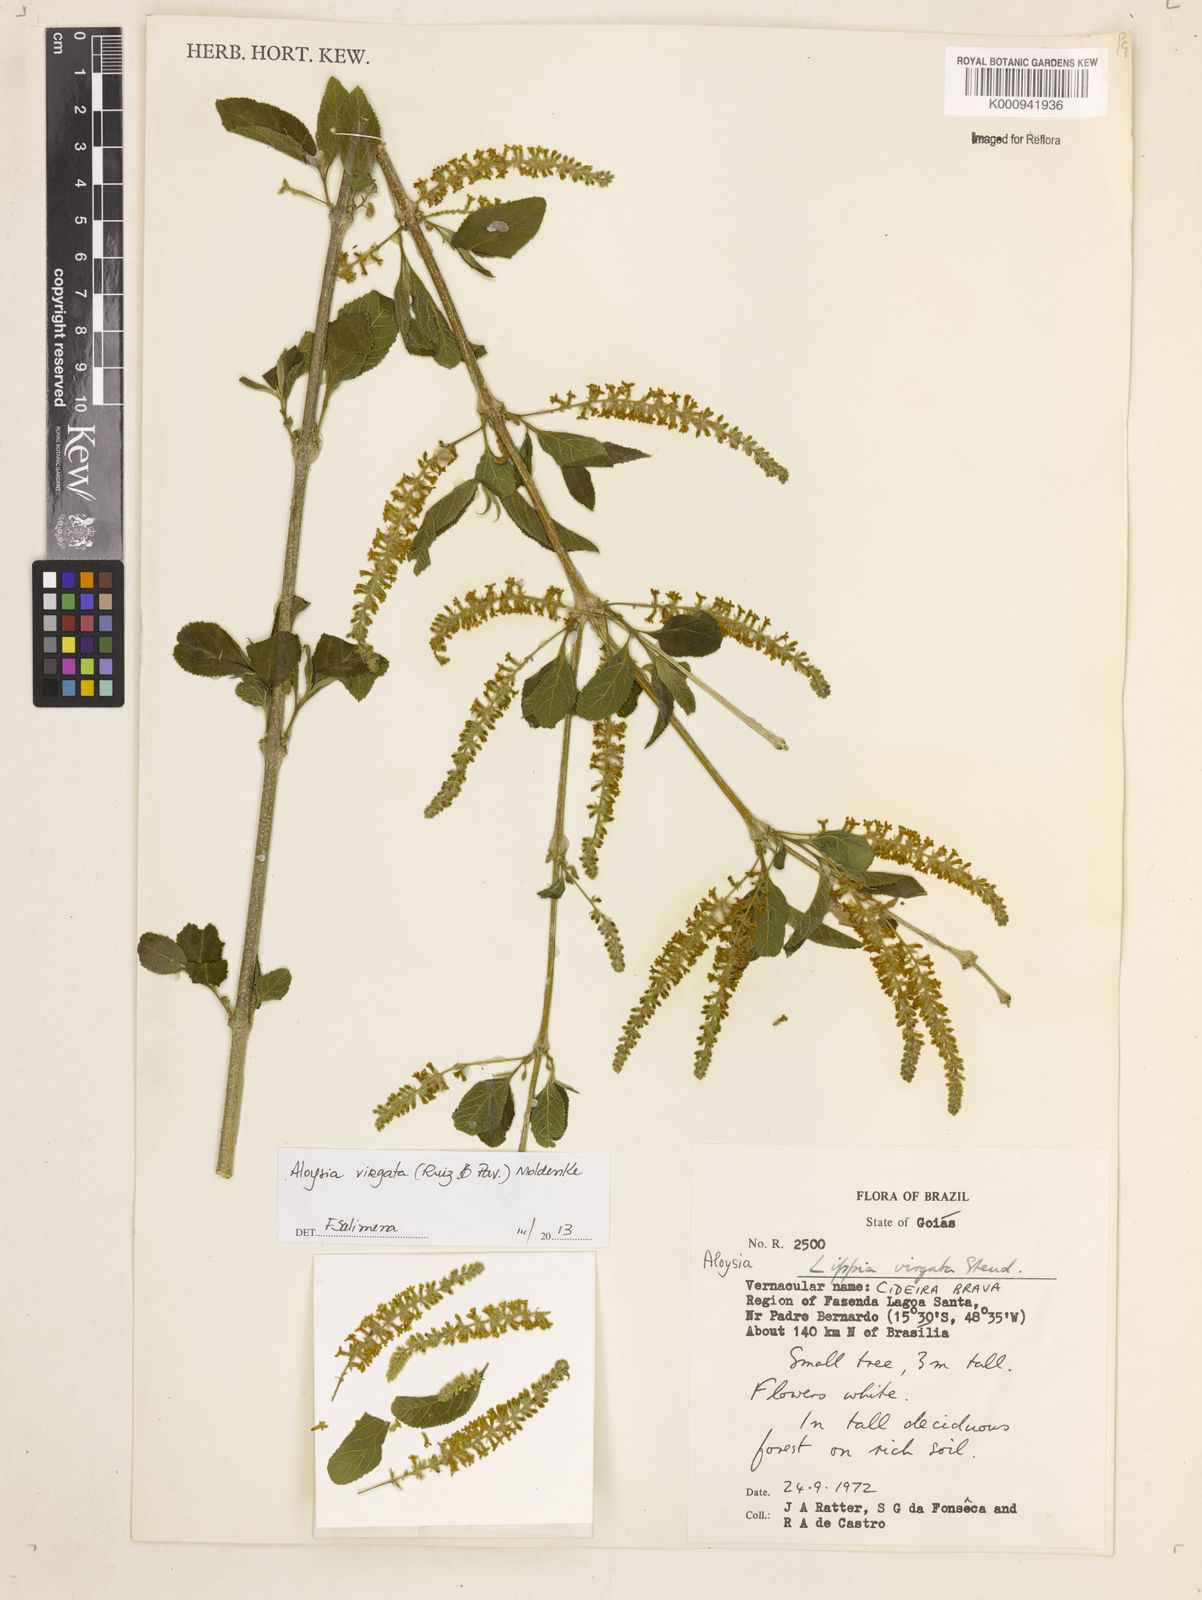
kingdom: Plantae
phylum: Tracheophyta
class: Magnoliopsida
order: Lamiales
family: Verbenaceae
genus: Aloysia
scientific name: Aloysia
